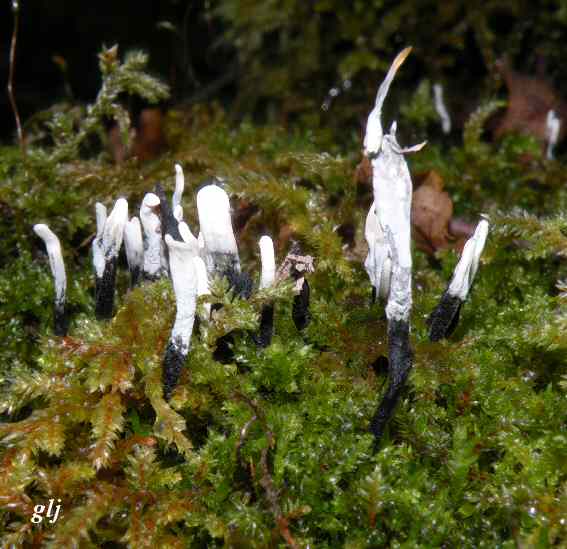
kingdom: Fungi
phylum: Ascomycota
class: Sordariomycetes
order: Xylariales
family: Xylariaceae
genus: Xylaria
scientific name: Xylaria hypoxylon
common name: grenet stødsvamp
